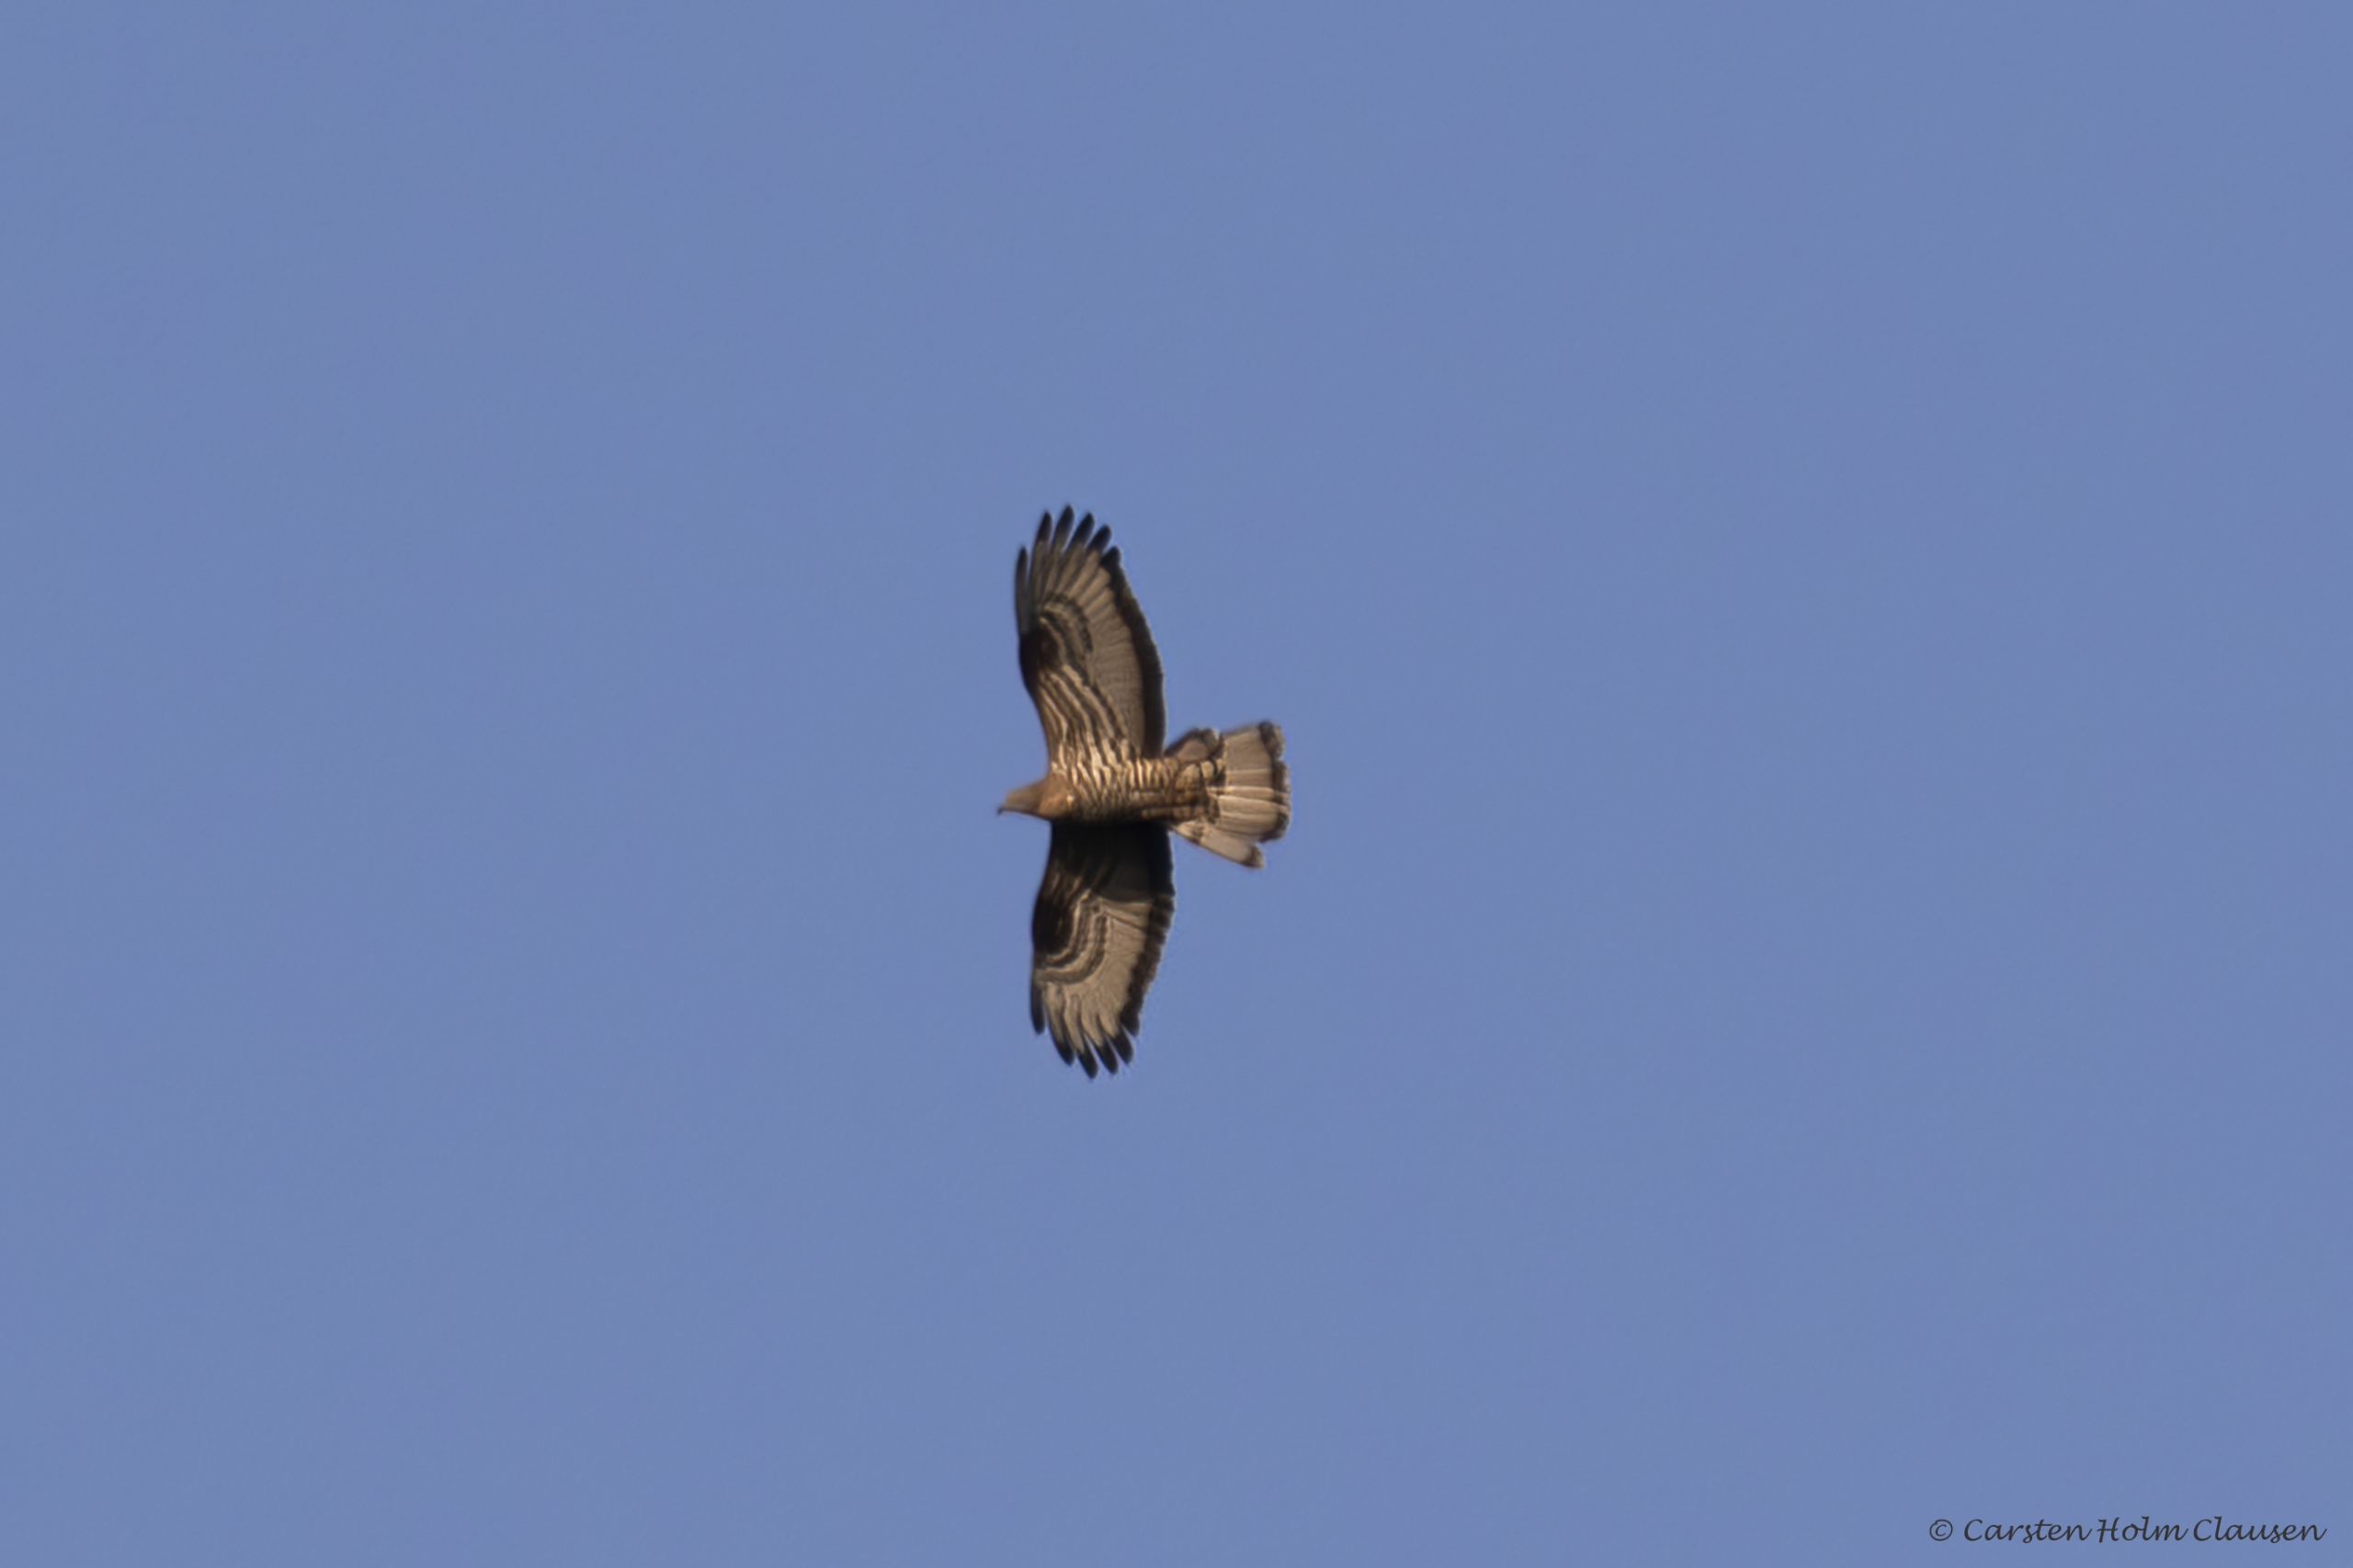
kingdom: Animalia
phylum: Chordata
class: Aves
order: Accipitriformes
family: Accipitridae
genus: Pernis
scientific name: Pernis apivorus
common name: Hvepsevåge
